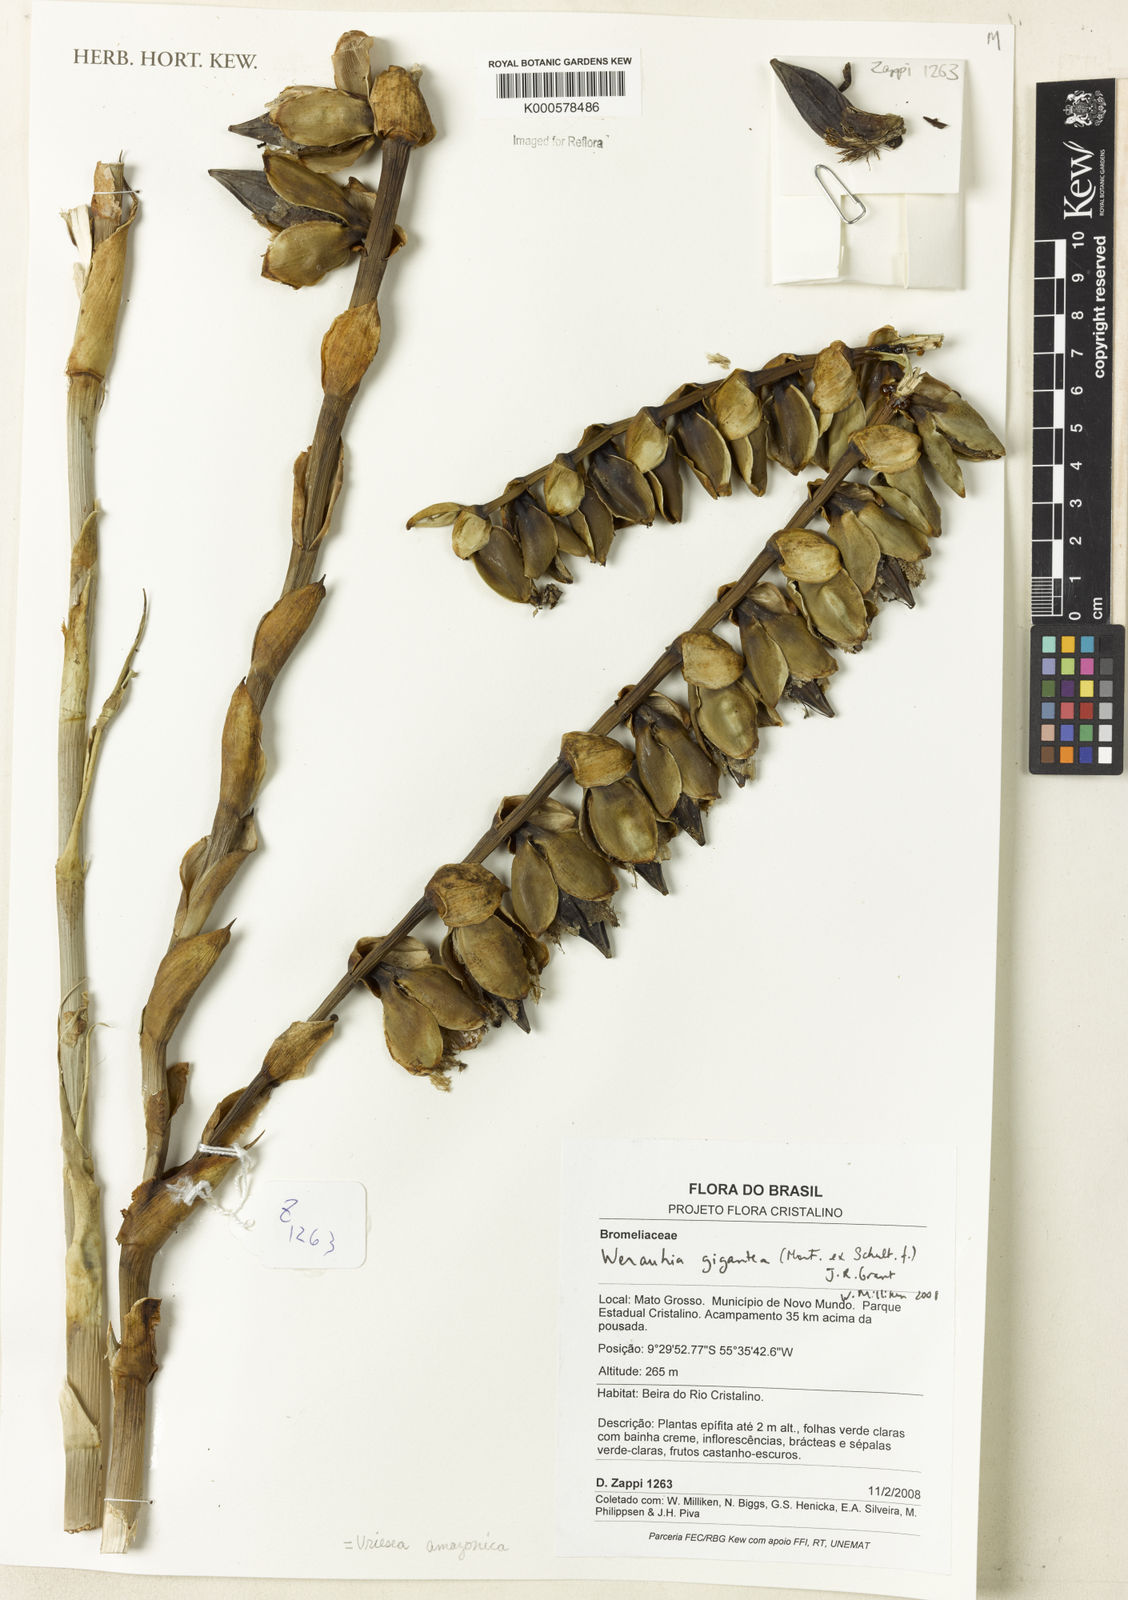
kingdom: Plantae
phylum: Tracheophyta
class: Liliopsida
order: Poales
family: Bromeliaceae
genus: Werauhia
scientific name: Werauhia gigantea
